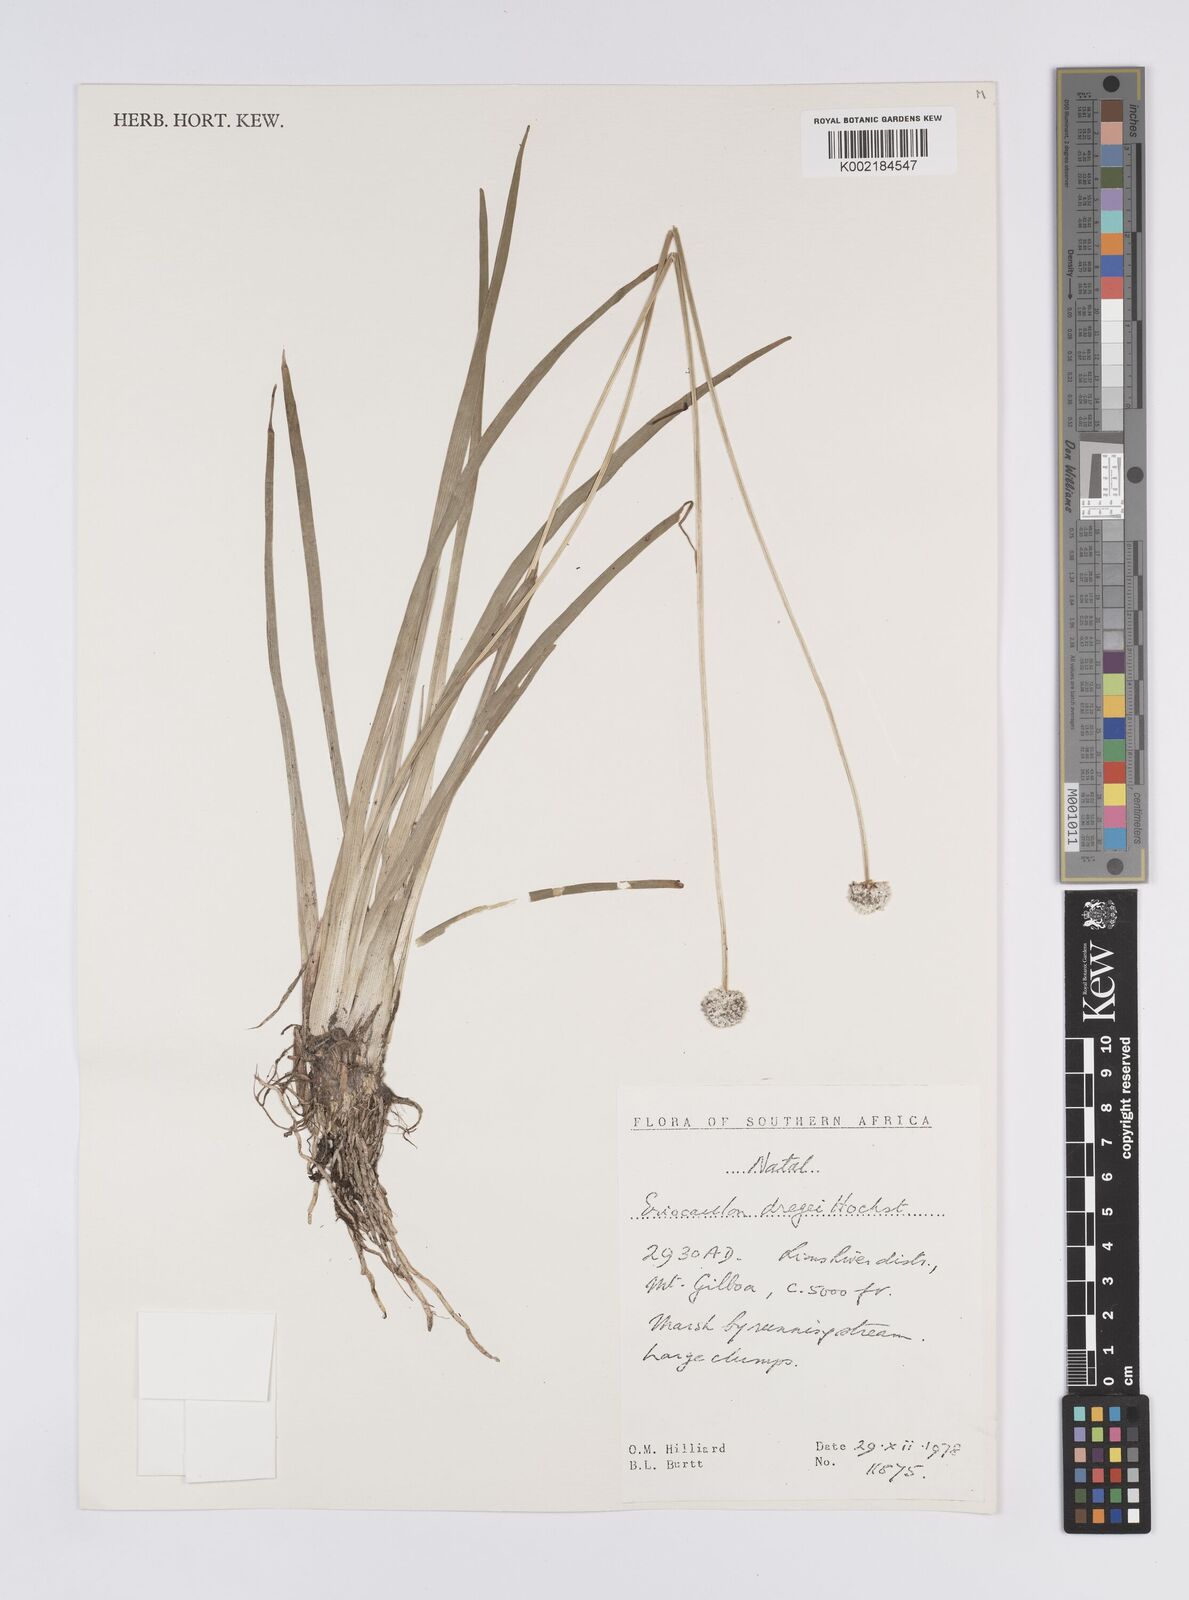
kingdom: Plantae
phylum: Tracheophyta
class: Liliopsida
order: Poales
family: Eriocaulaceae
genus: Eriocaulon
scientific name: Eriocaulon dregei
